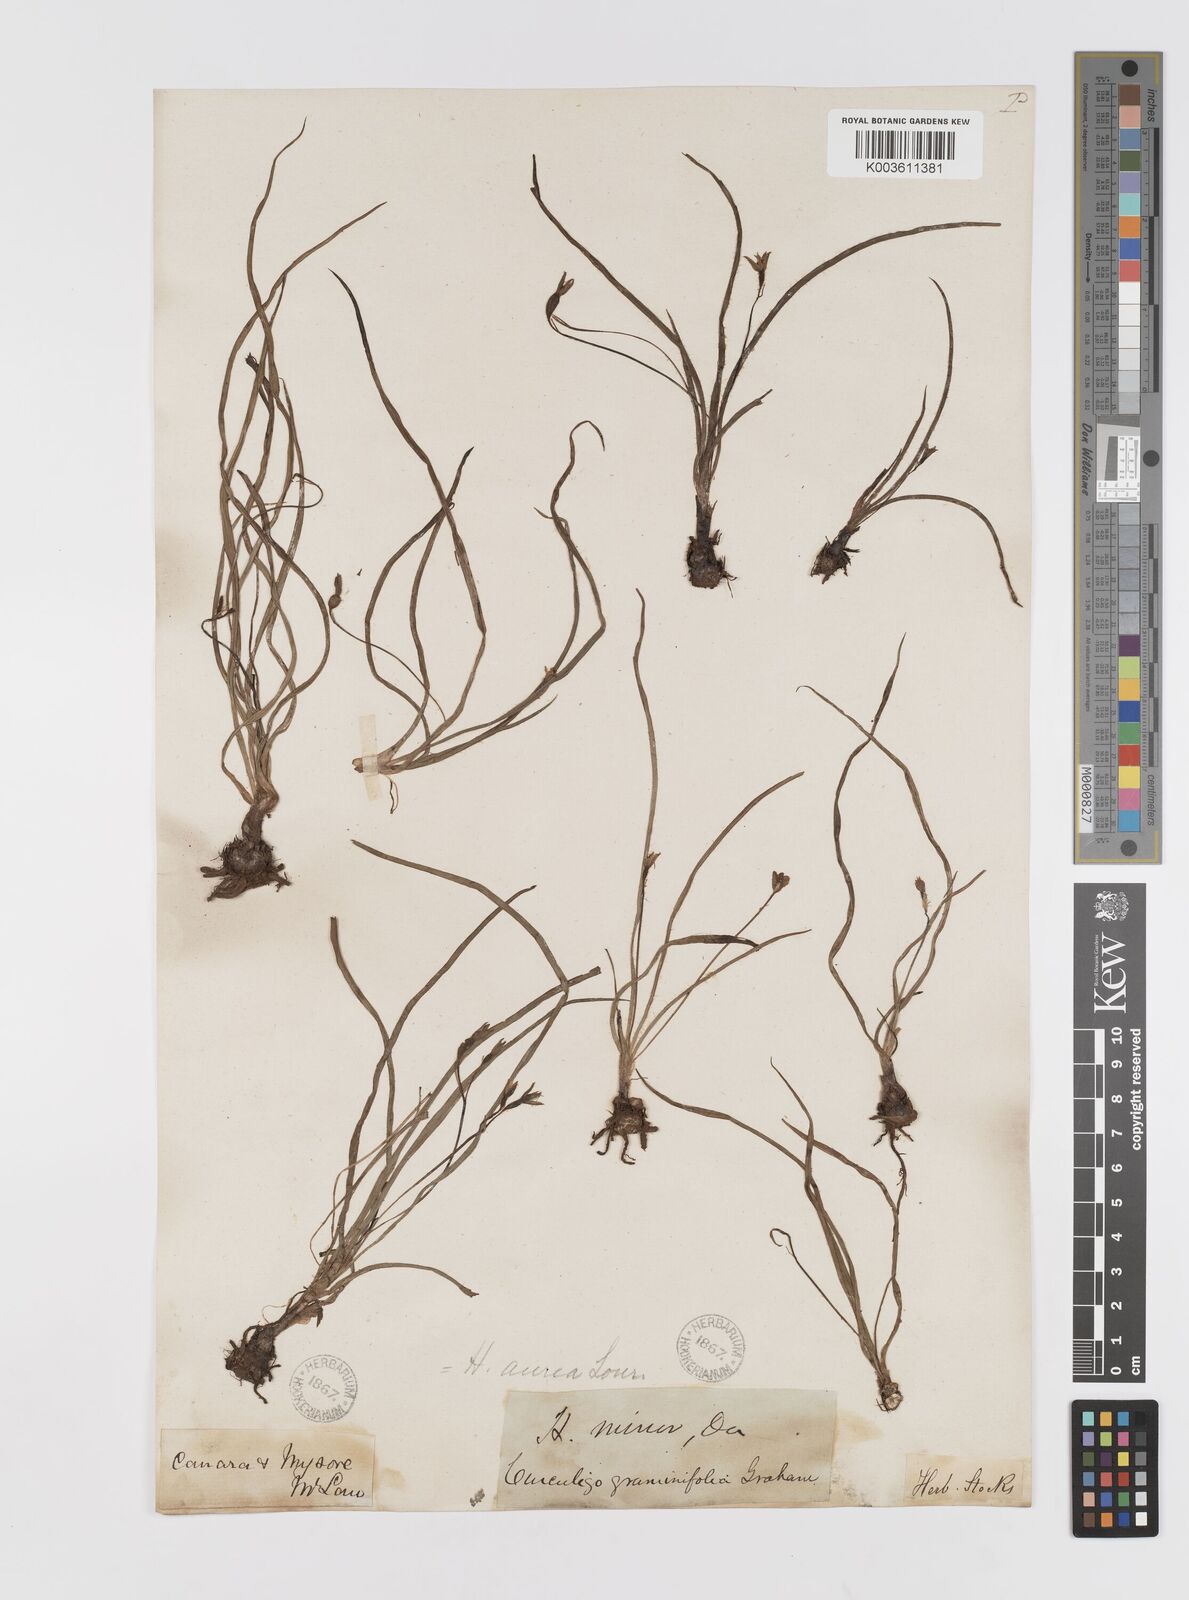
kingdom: Plantae
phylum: Tracheophyta
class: Liliopsida
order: Asparagales
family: Hypoxidaceae
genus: Hypoxis
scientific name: Hypoxis aurea
